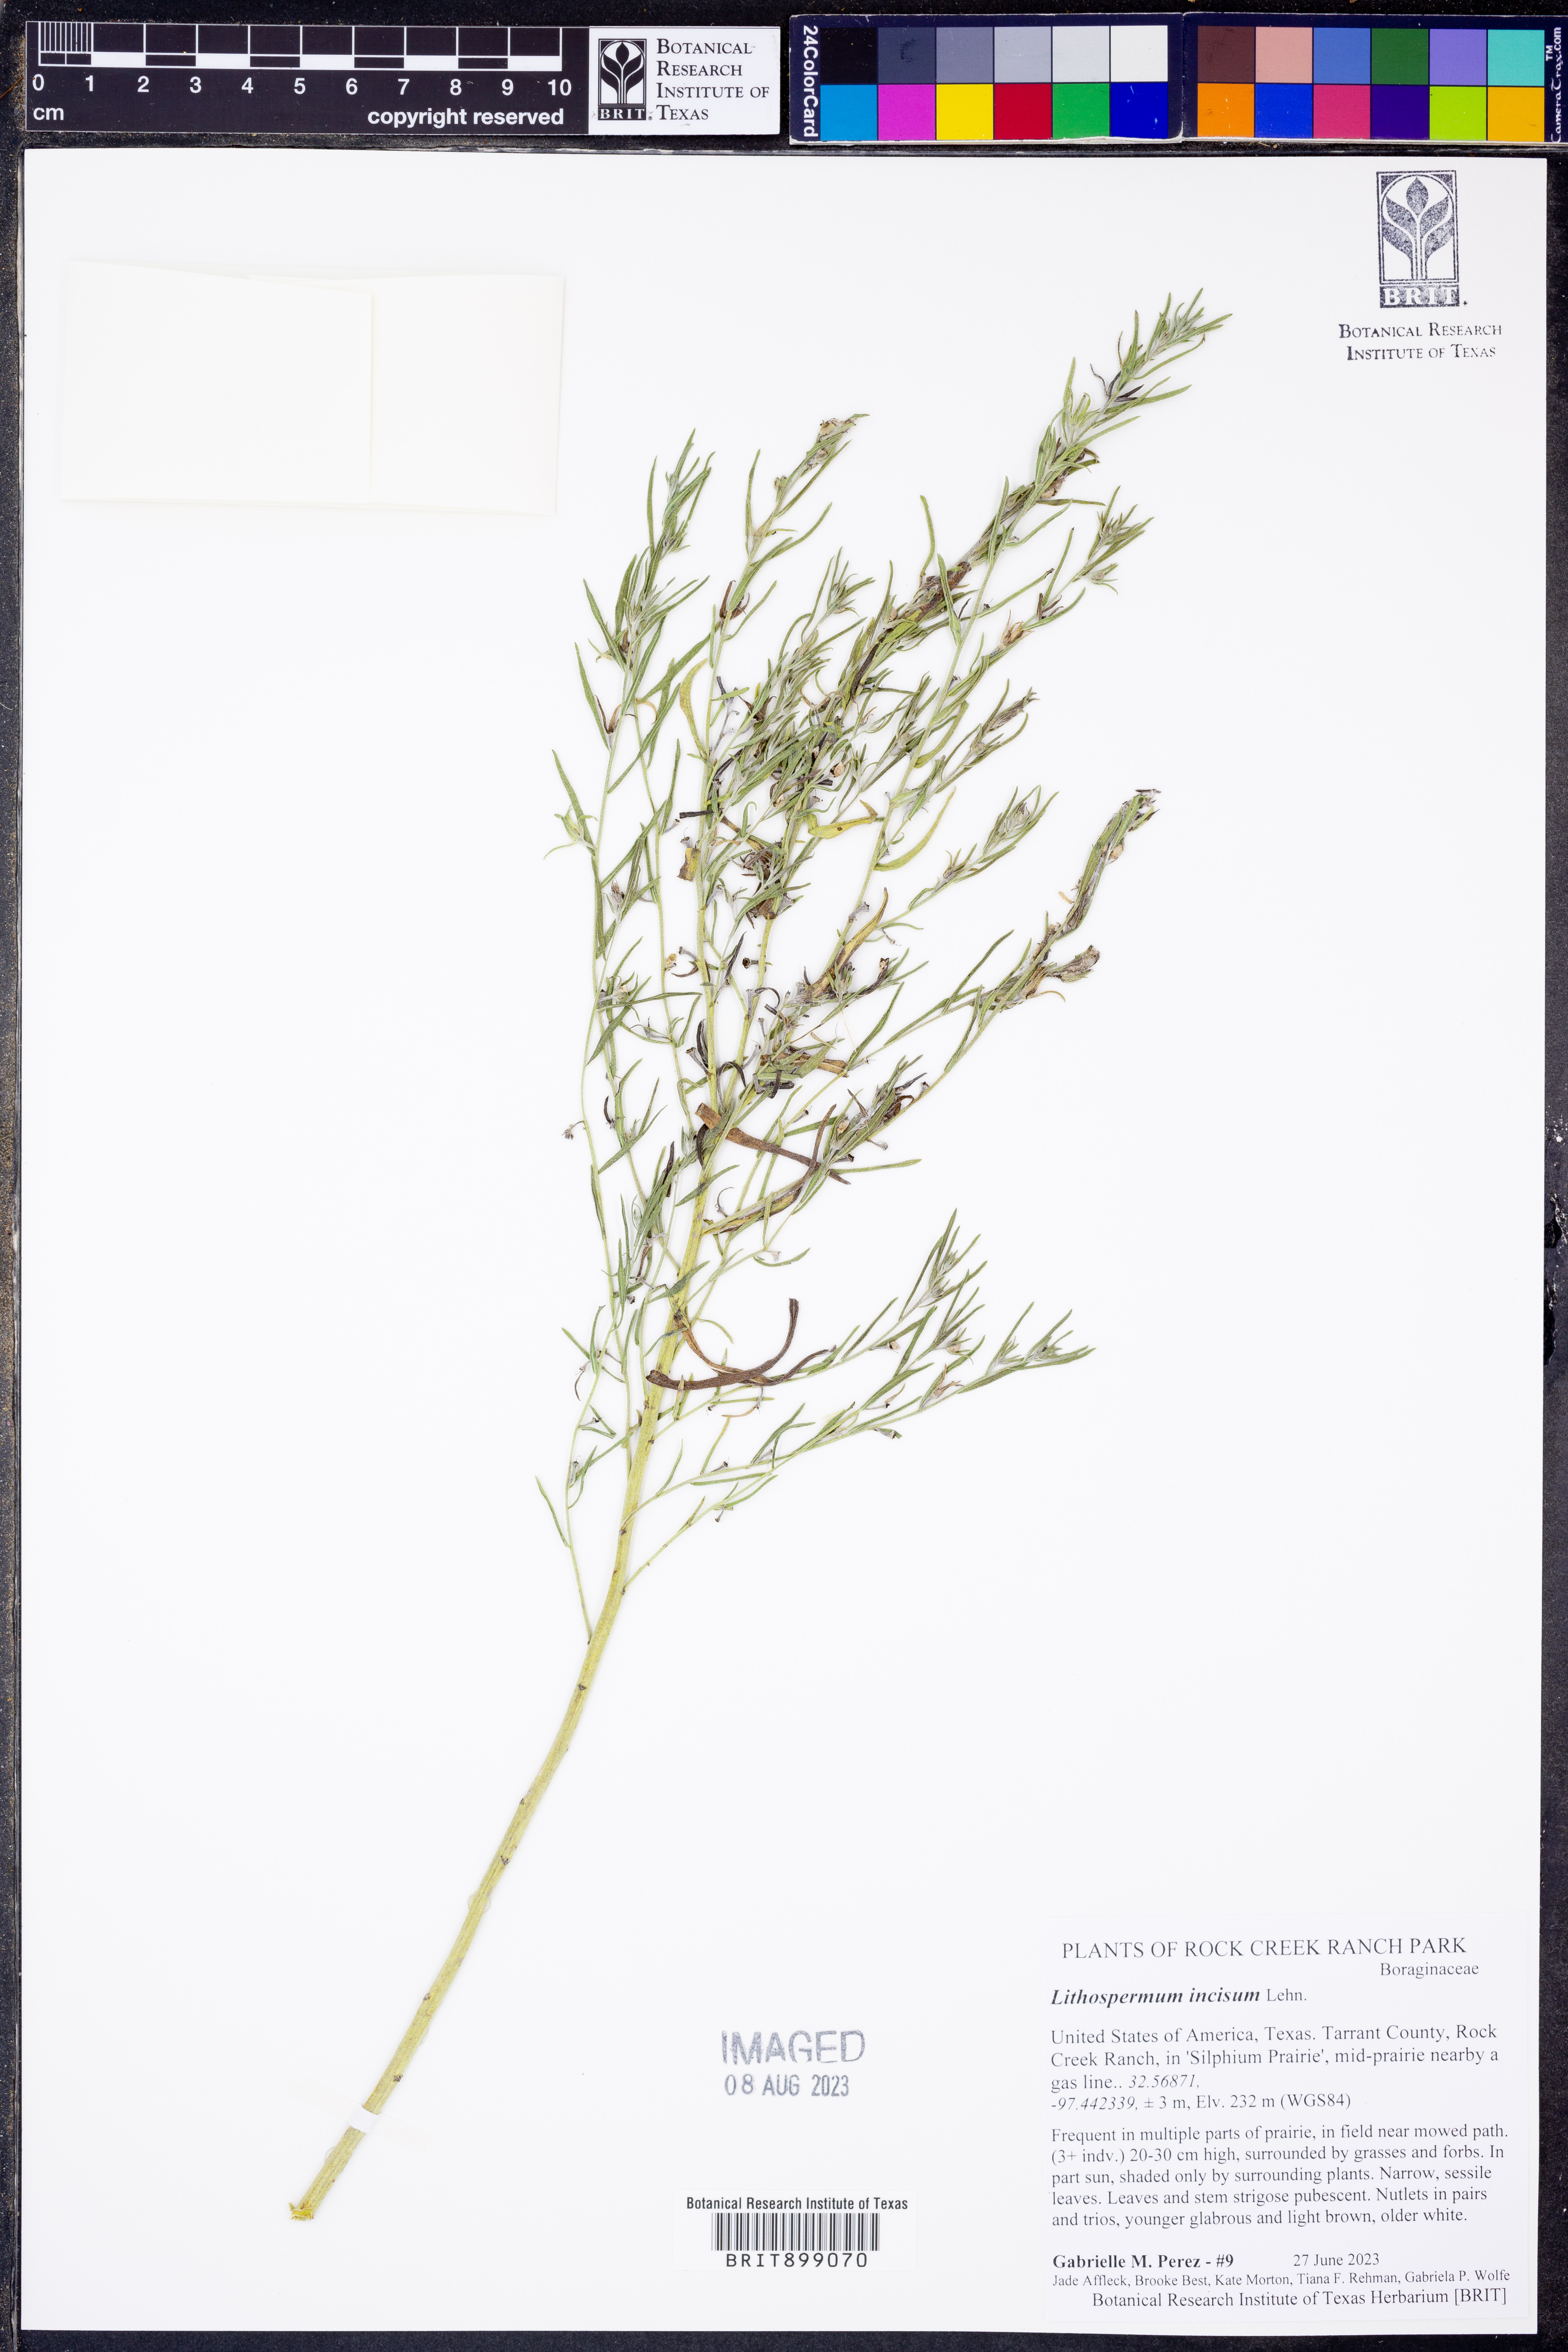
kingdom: Plantae
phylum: Tracheophyta
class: Magnoliopsida
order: Boraginales
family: Boraginaceae
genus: Lithospermum
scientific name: Lithospermum incisum
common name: Fringed gromwell
